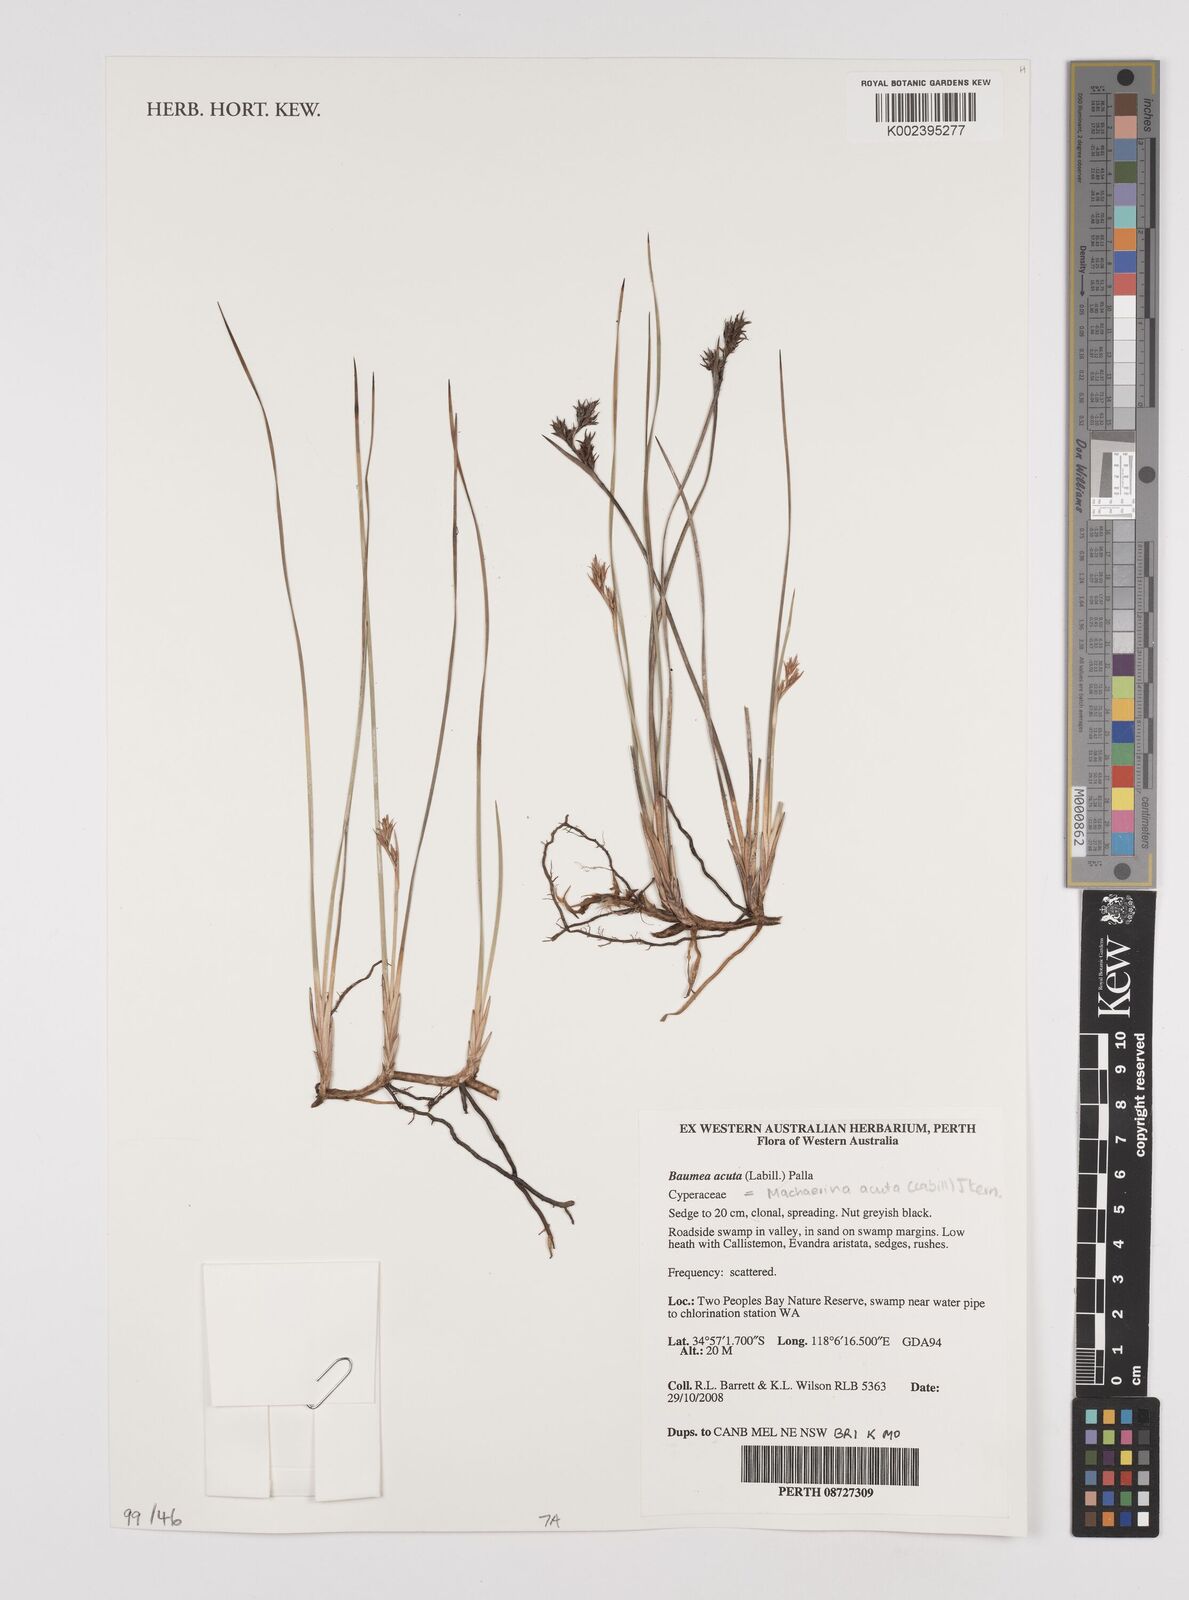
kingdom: Plantae
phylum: Tracheophyta
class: Liliopsida
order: Poales
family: Cyperaceae
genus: Machaerina
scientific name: Machaerina acuta
